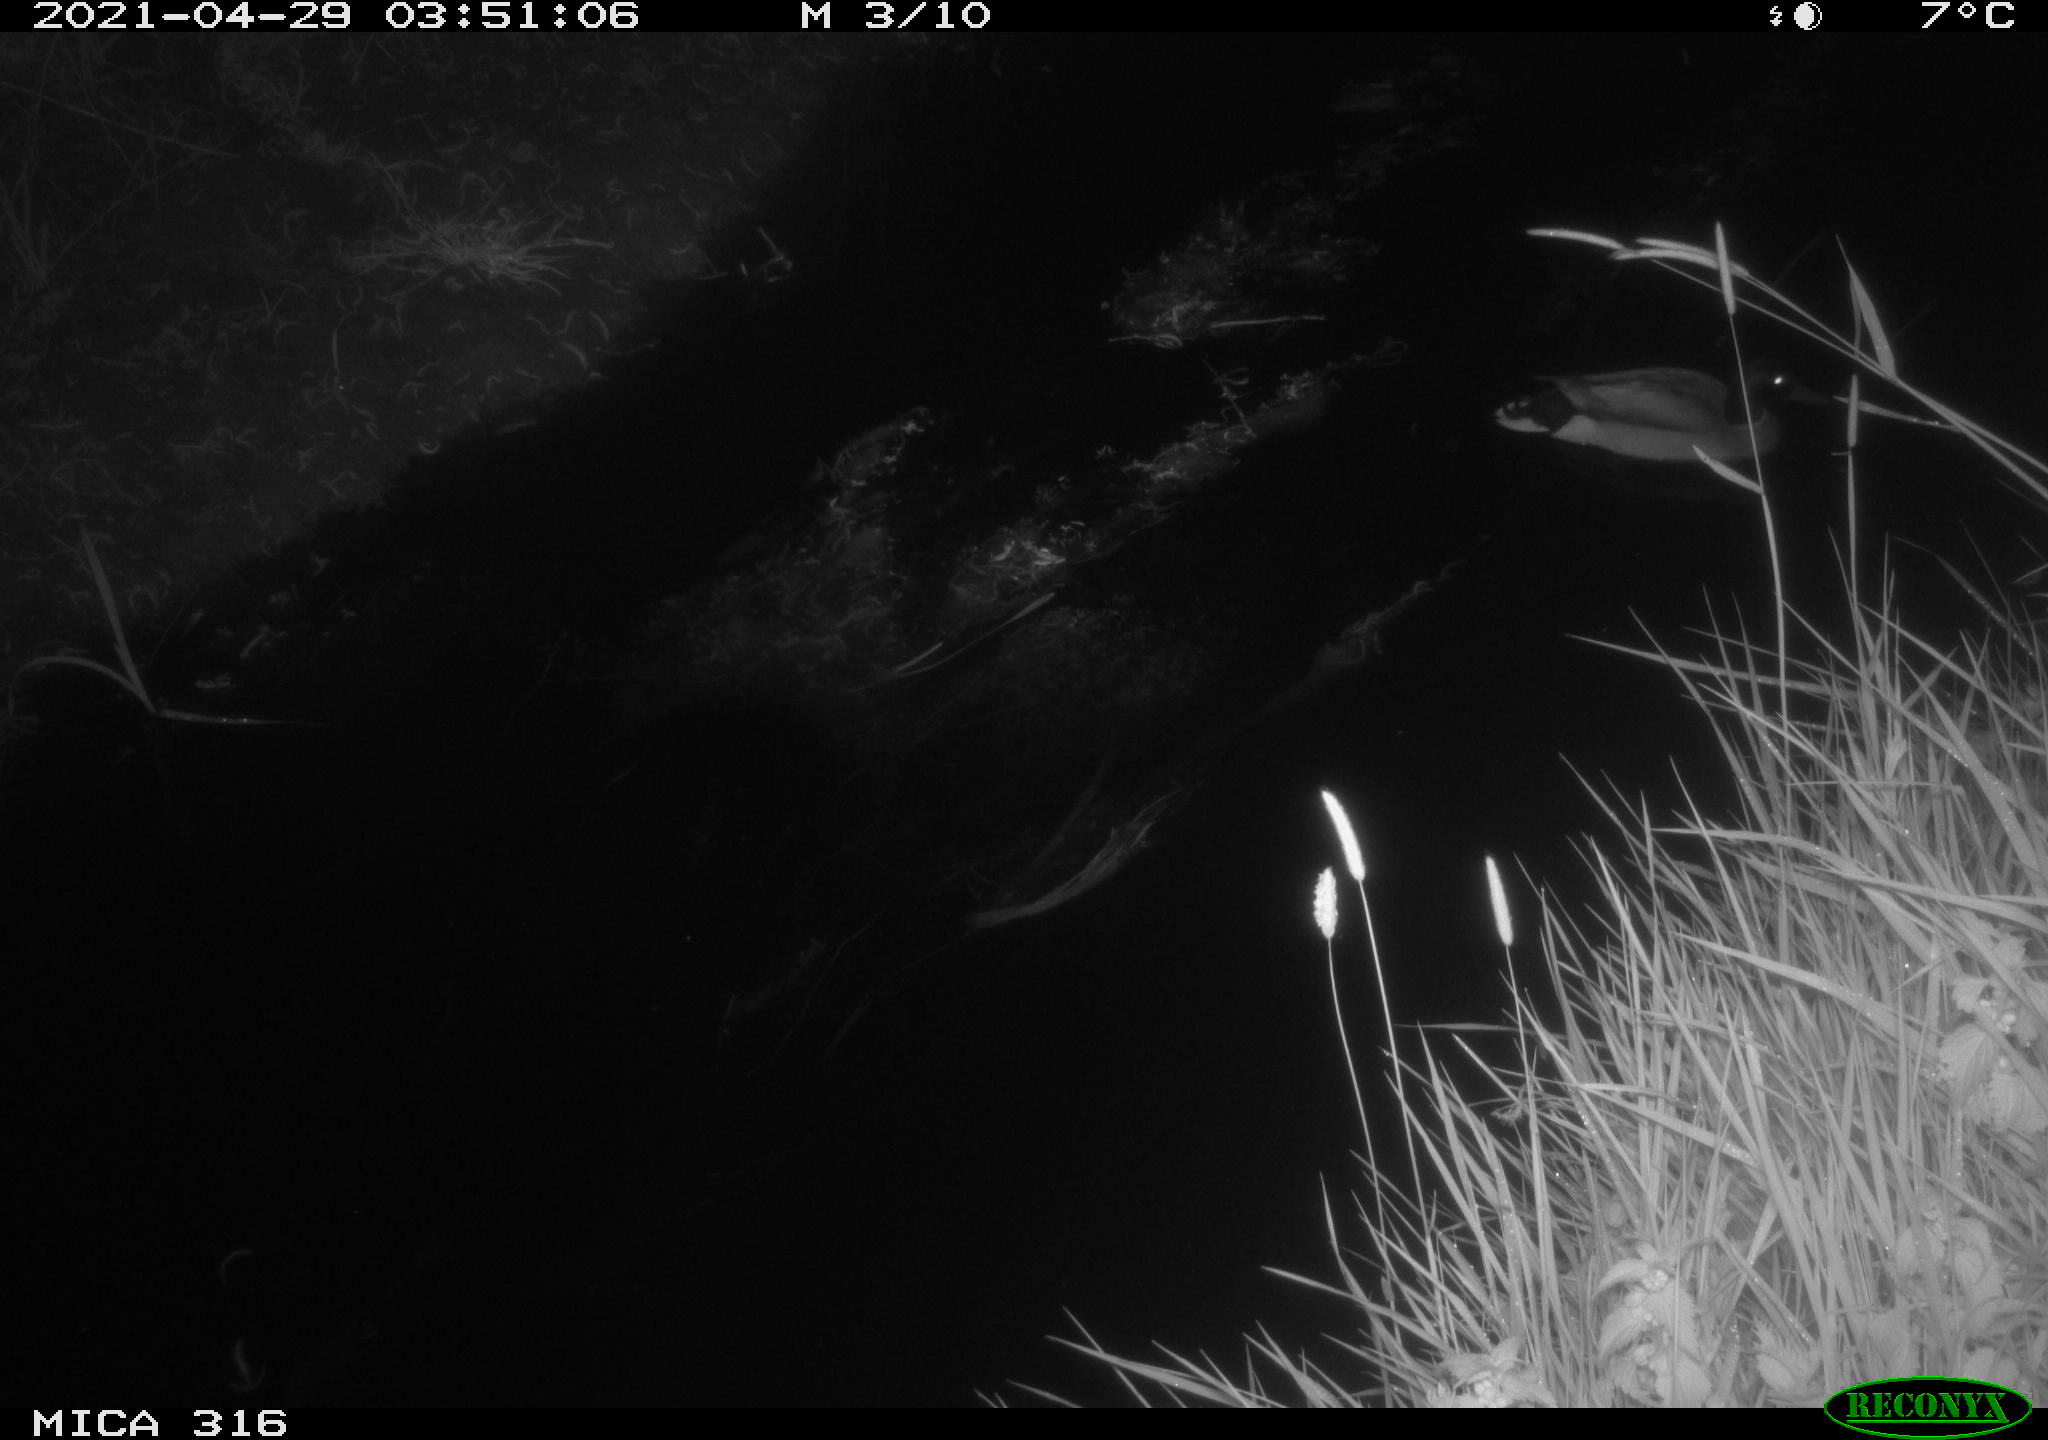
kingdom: Animalia
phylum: Chordata
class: Aves
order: Anseriformes
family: Anatidae
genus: Anas
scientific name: Anas platyrhynchos
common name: Mallard
